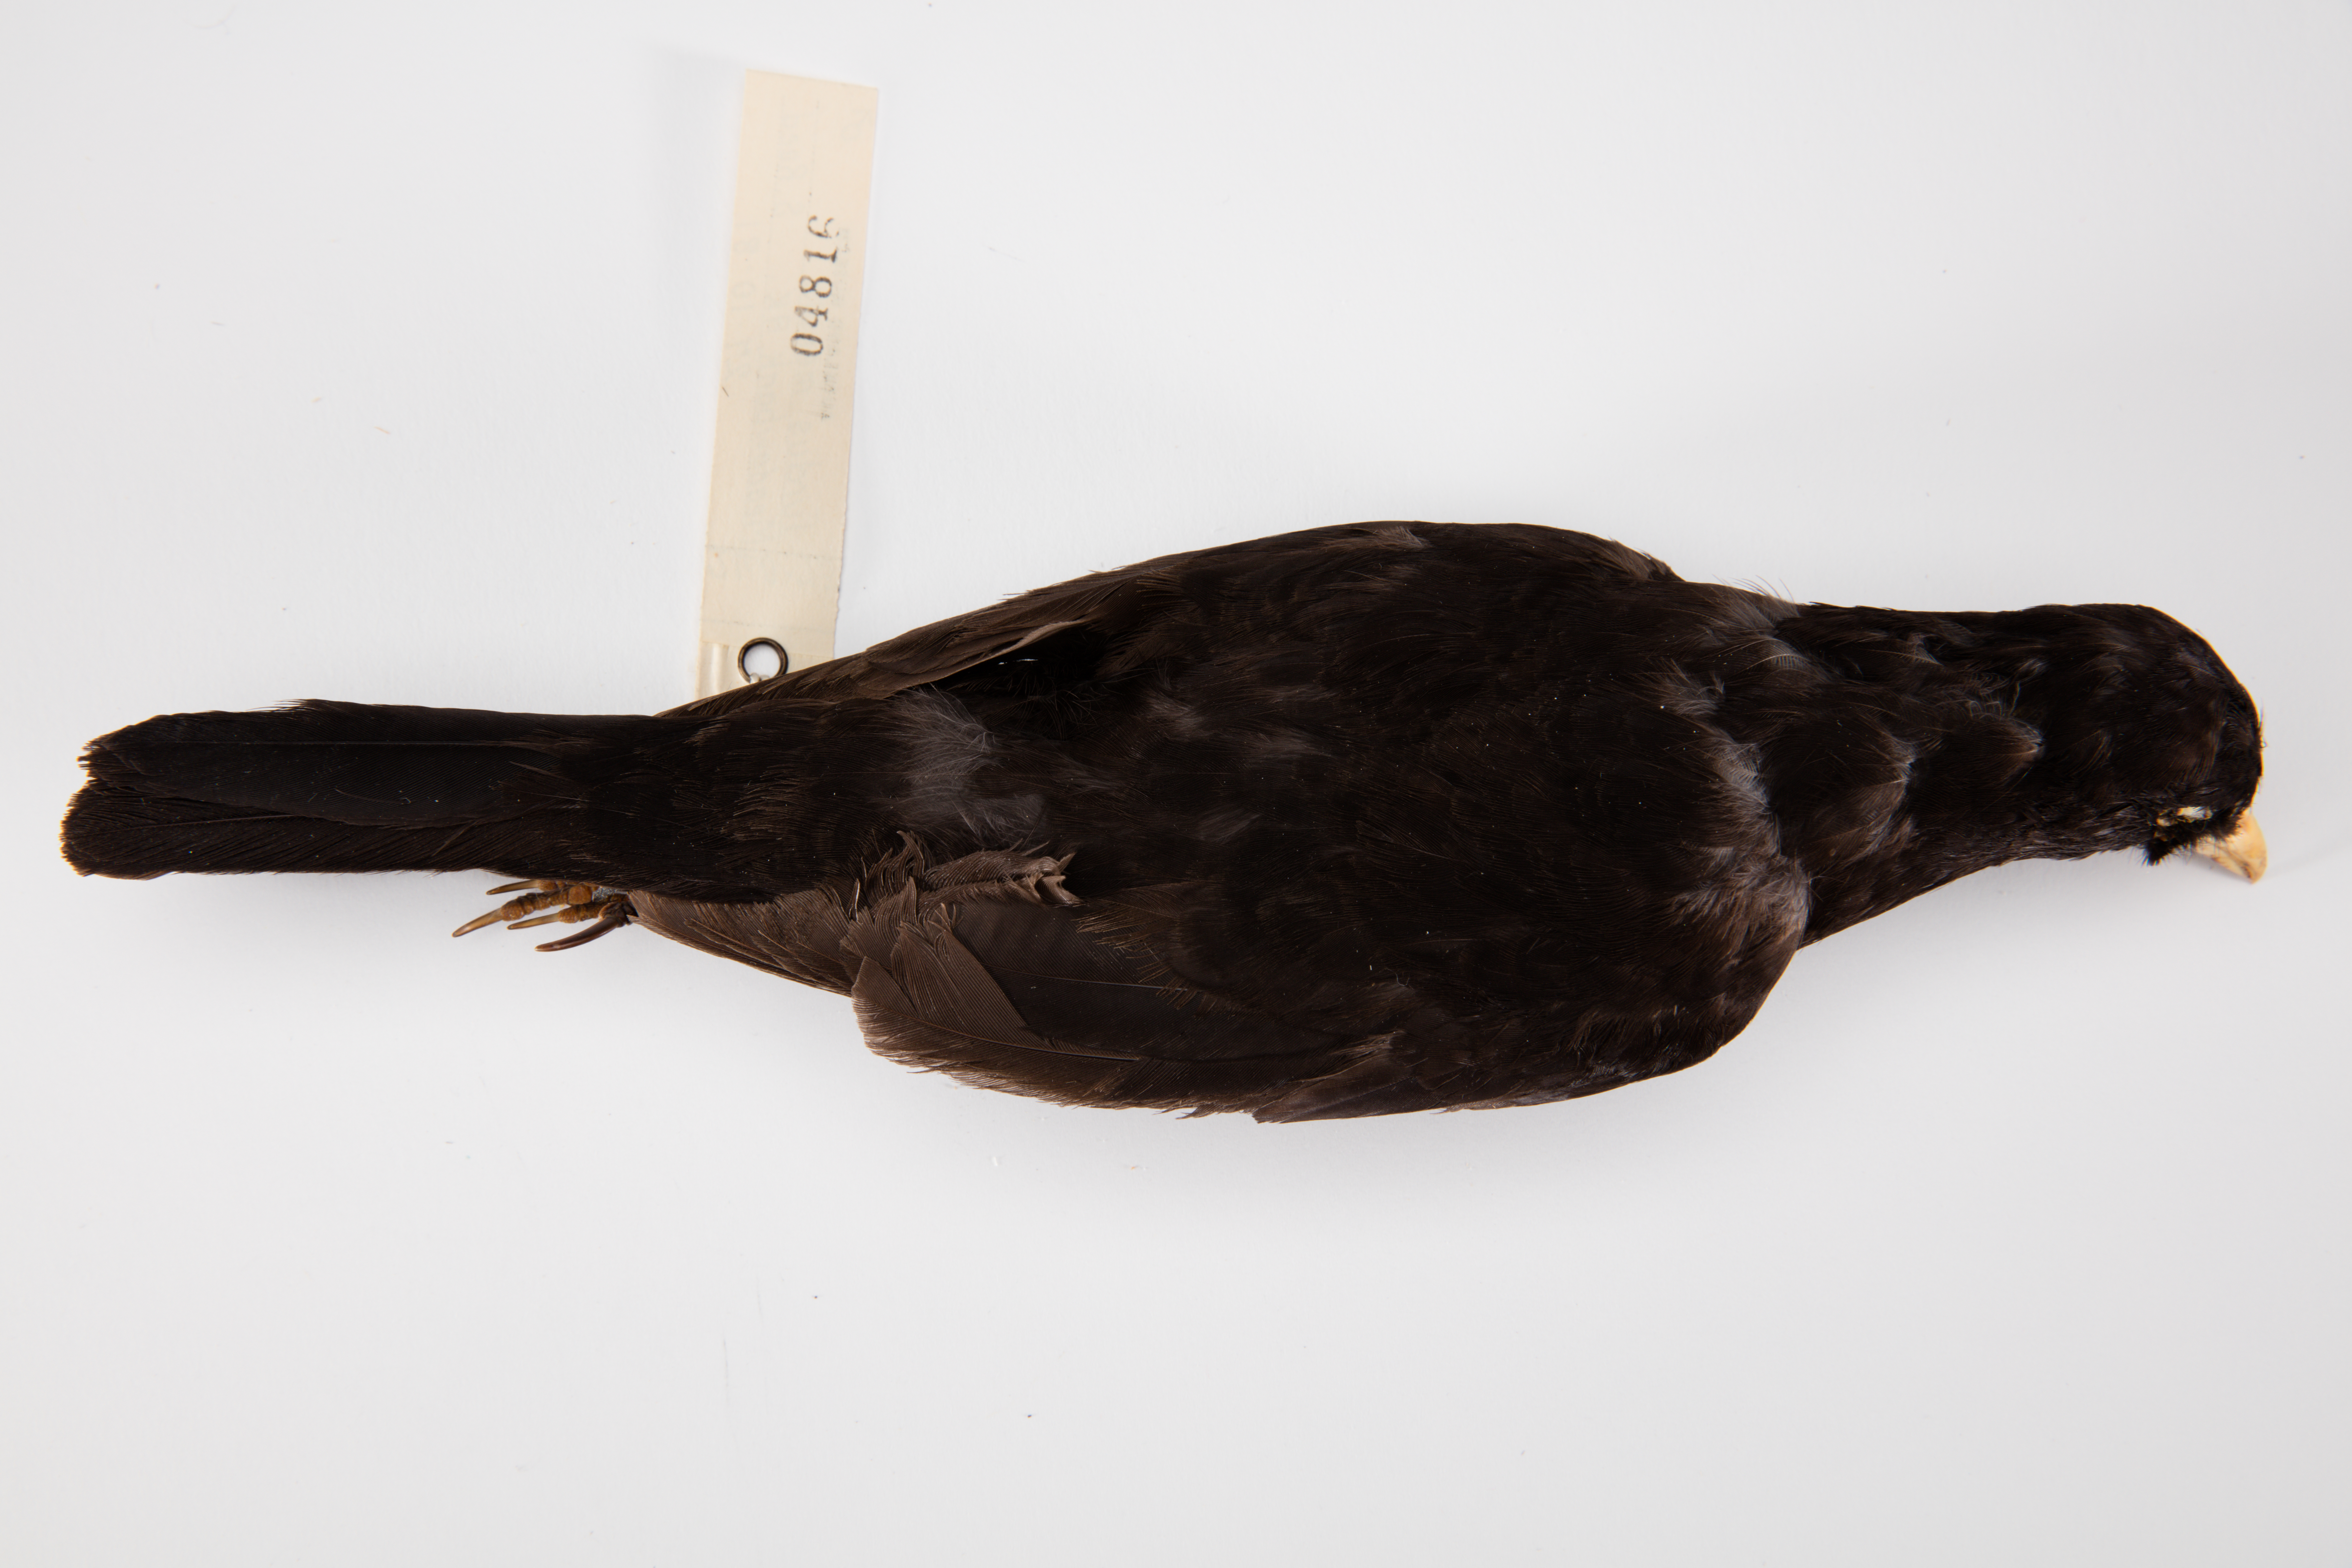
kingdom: Animalia
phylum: Chordata
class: Aves
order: Passeriformes
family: Turdidae
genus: Turdus
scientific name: Turdus merula
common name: Common blackbird
